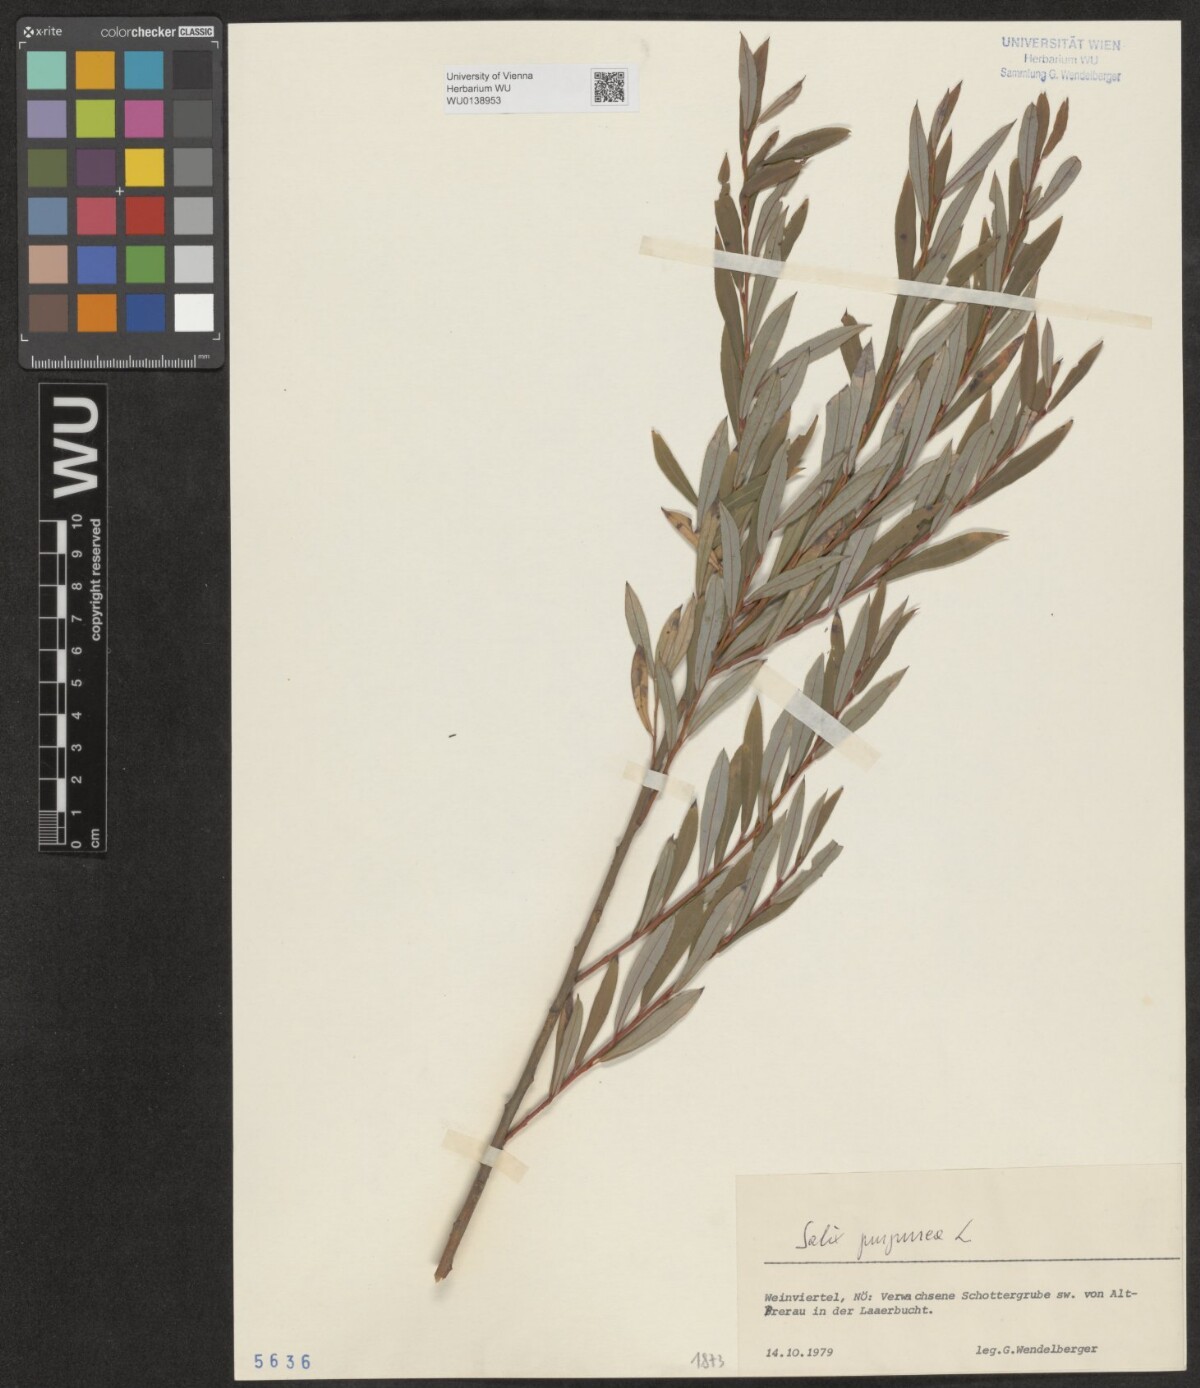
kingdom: Plantae
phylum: Tracheophyta
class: Magnoliopsida
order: Malpighiales
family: Salicaceae
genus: Salix
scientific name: Salix purpurea
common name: Purple willow
